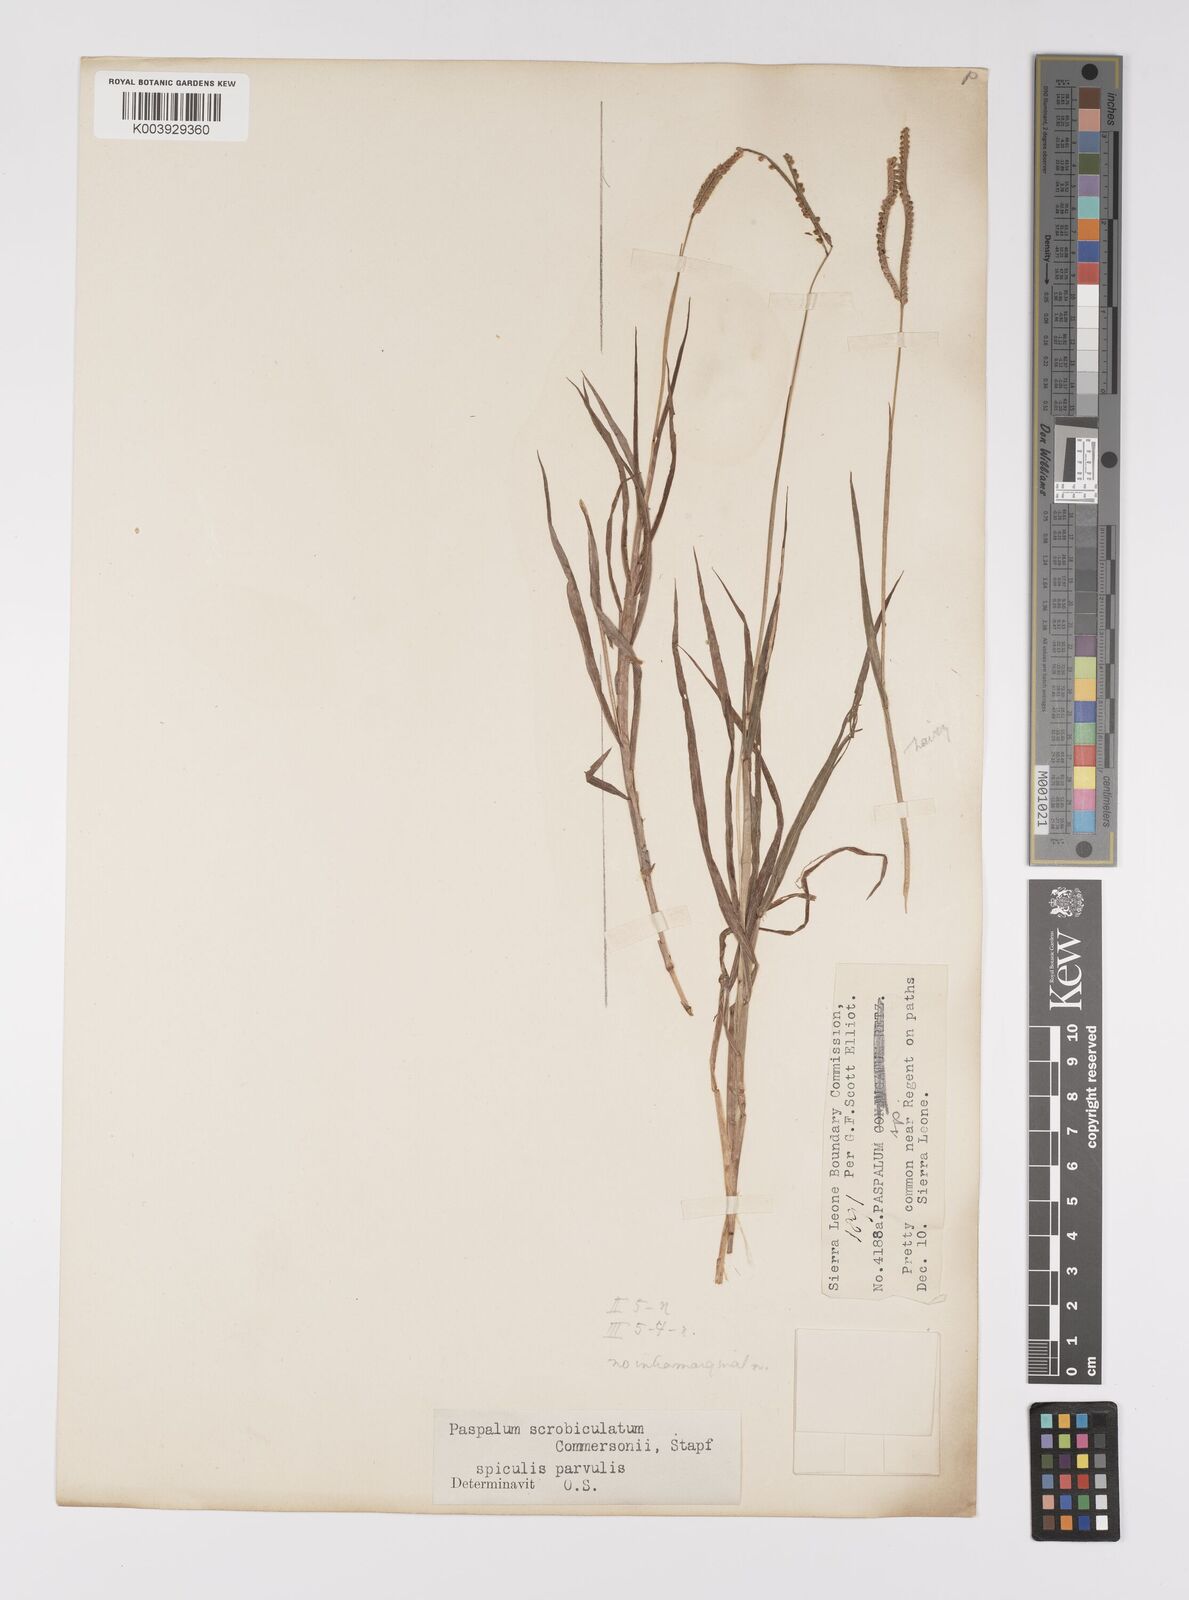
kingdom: Plantae
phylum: Tracheophyta
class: Liliopsida
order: Poales
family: Poaceae
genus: Paspalum
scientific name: Paspalum scrobiculatum
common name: Kodo millet
